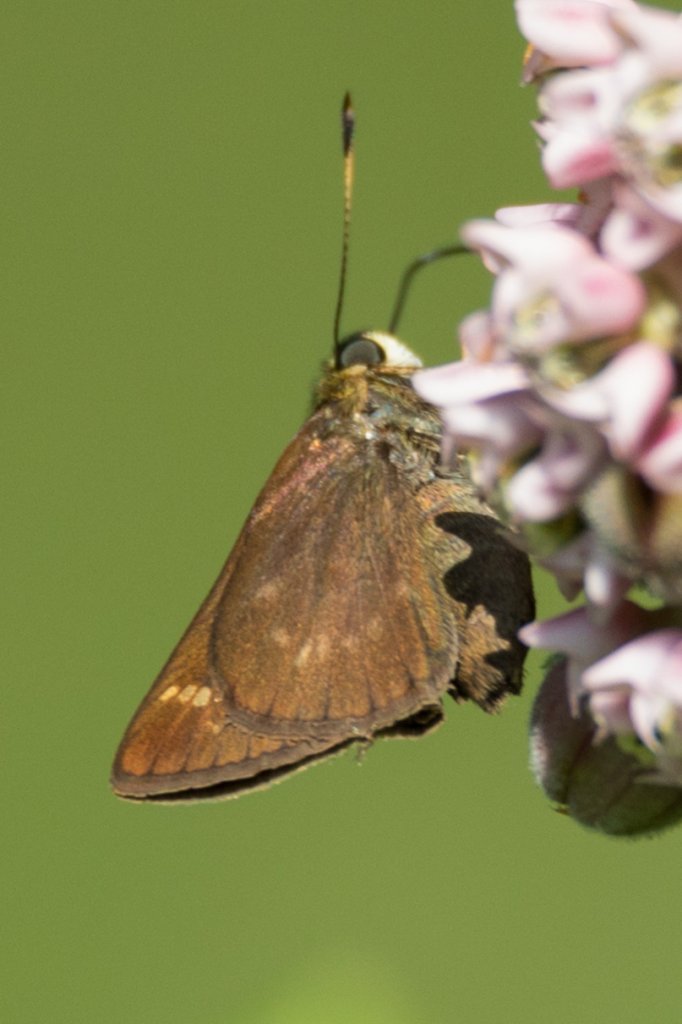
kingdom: Animalia
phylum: Arthropoda
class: Insecta
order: Lepidoptera
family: Hesperiidae
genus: Vernia
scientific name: Vernia verna
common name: Little Glassywing
